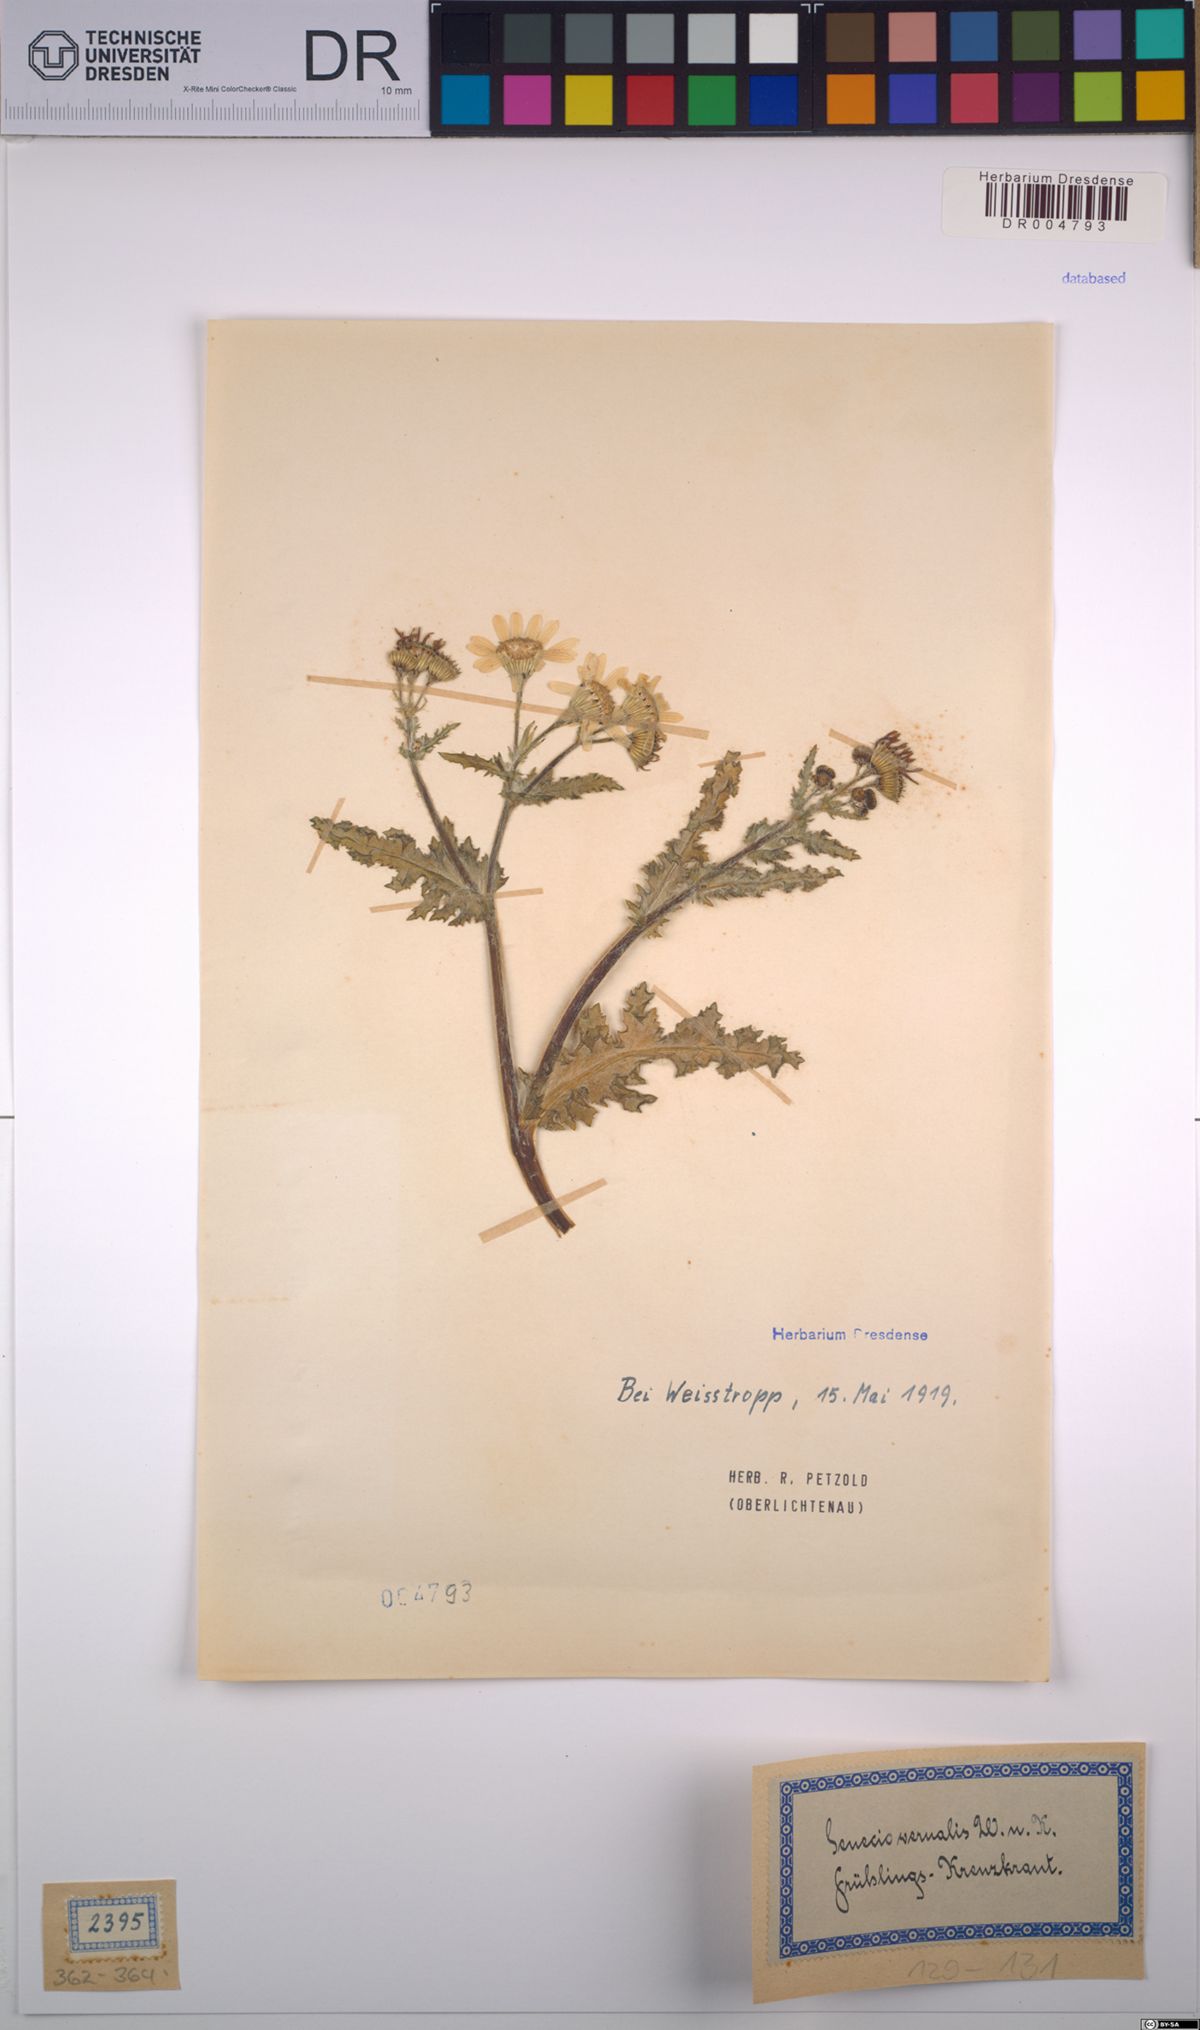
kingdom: Plantae
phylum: Tracheophyta
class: Magnoliopsida
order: Asterales
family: Asteraceae
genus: Senecio
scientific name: Senecio vernalis
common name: Eastern groundsel
